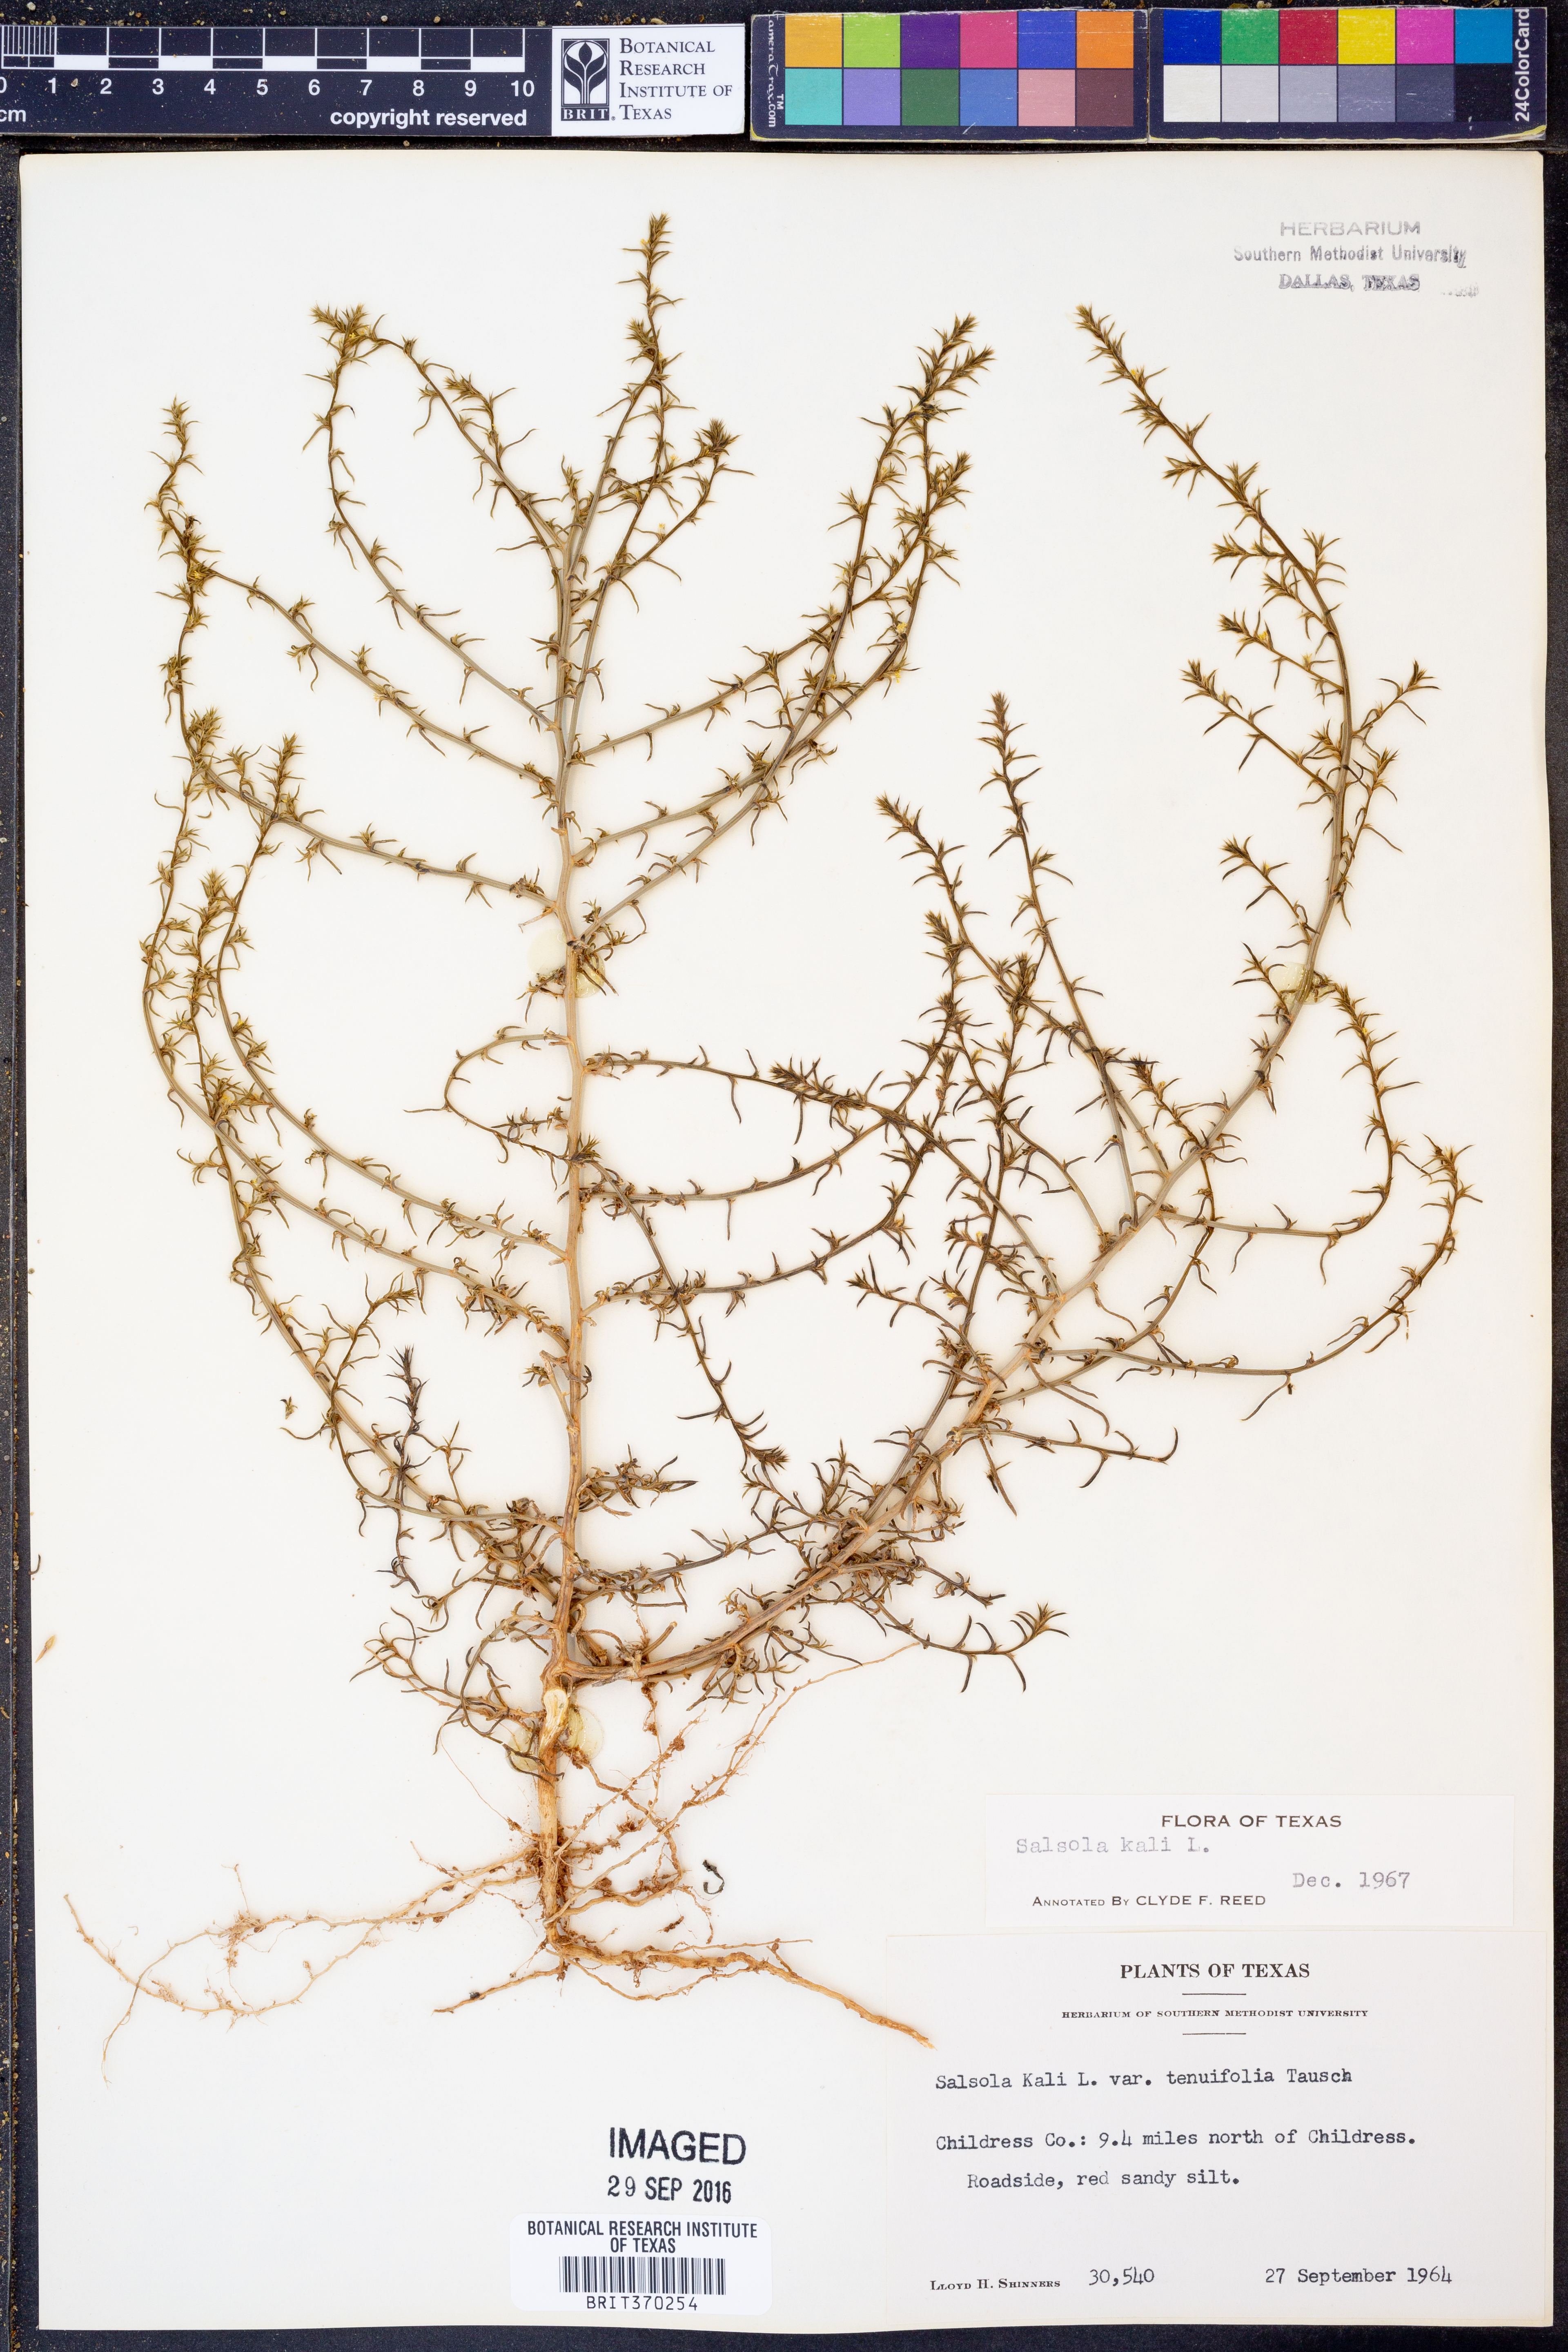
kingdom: Plantae
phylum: Tracheophyta
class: Magnoliopsida
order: Caryophyllales
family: Amaranthaceae
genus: Salsola
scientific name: Salsola tragus
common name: Prickly russian thistle
